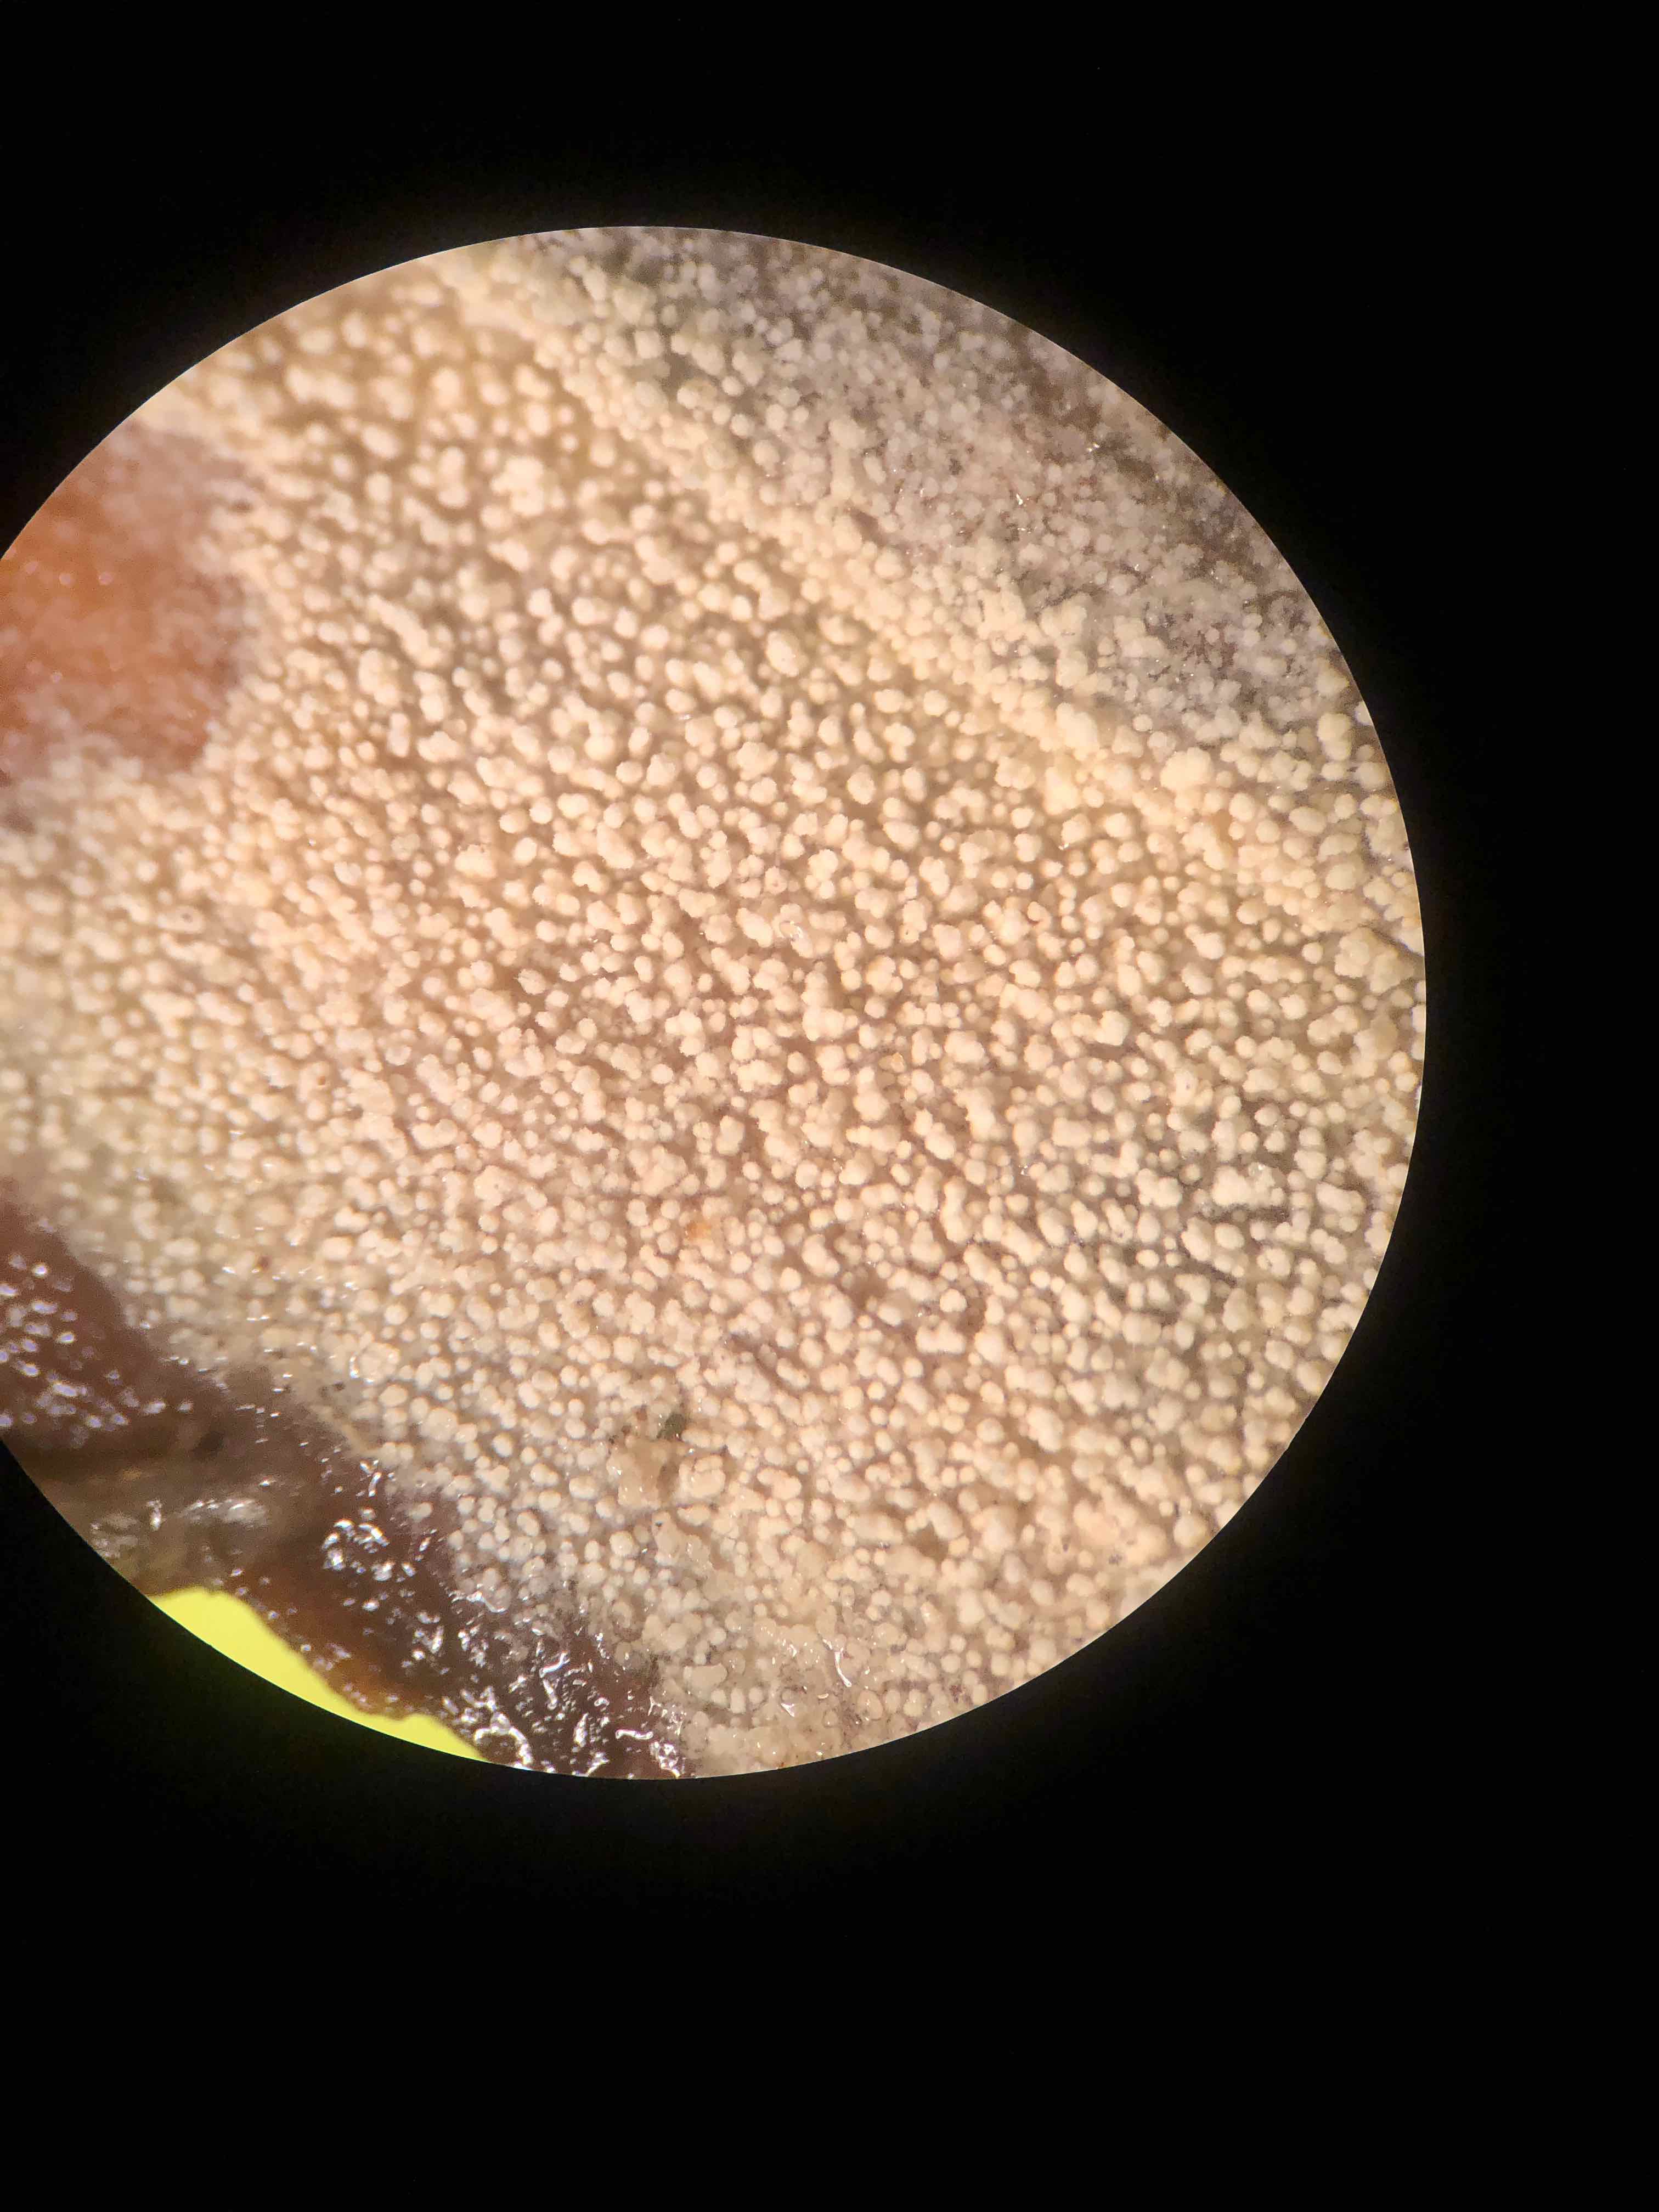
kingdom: Fungi
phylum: Basidiomycota
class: Agaricomycetes
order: Corticiales
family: Corticiaceae
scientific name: Corticiaceae
